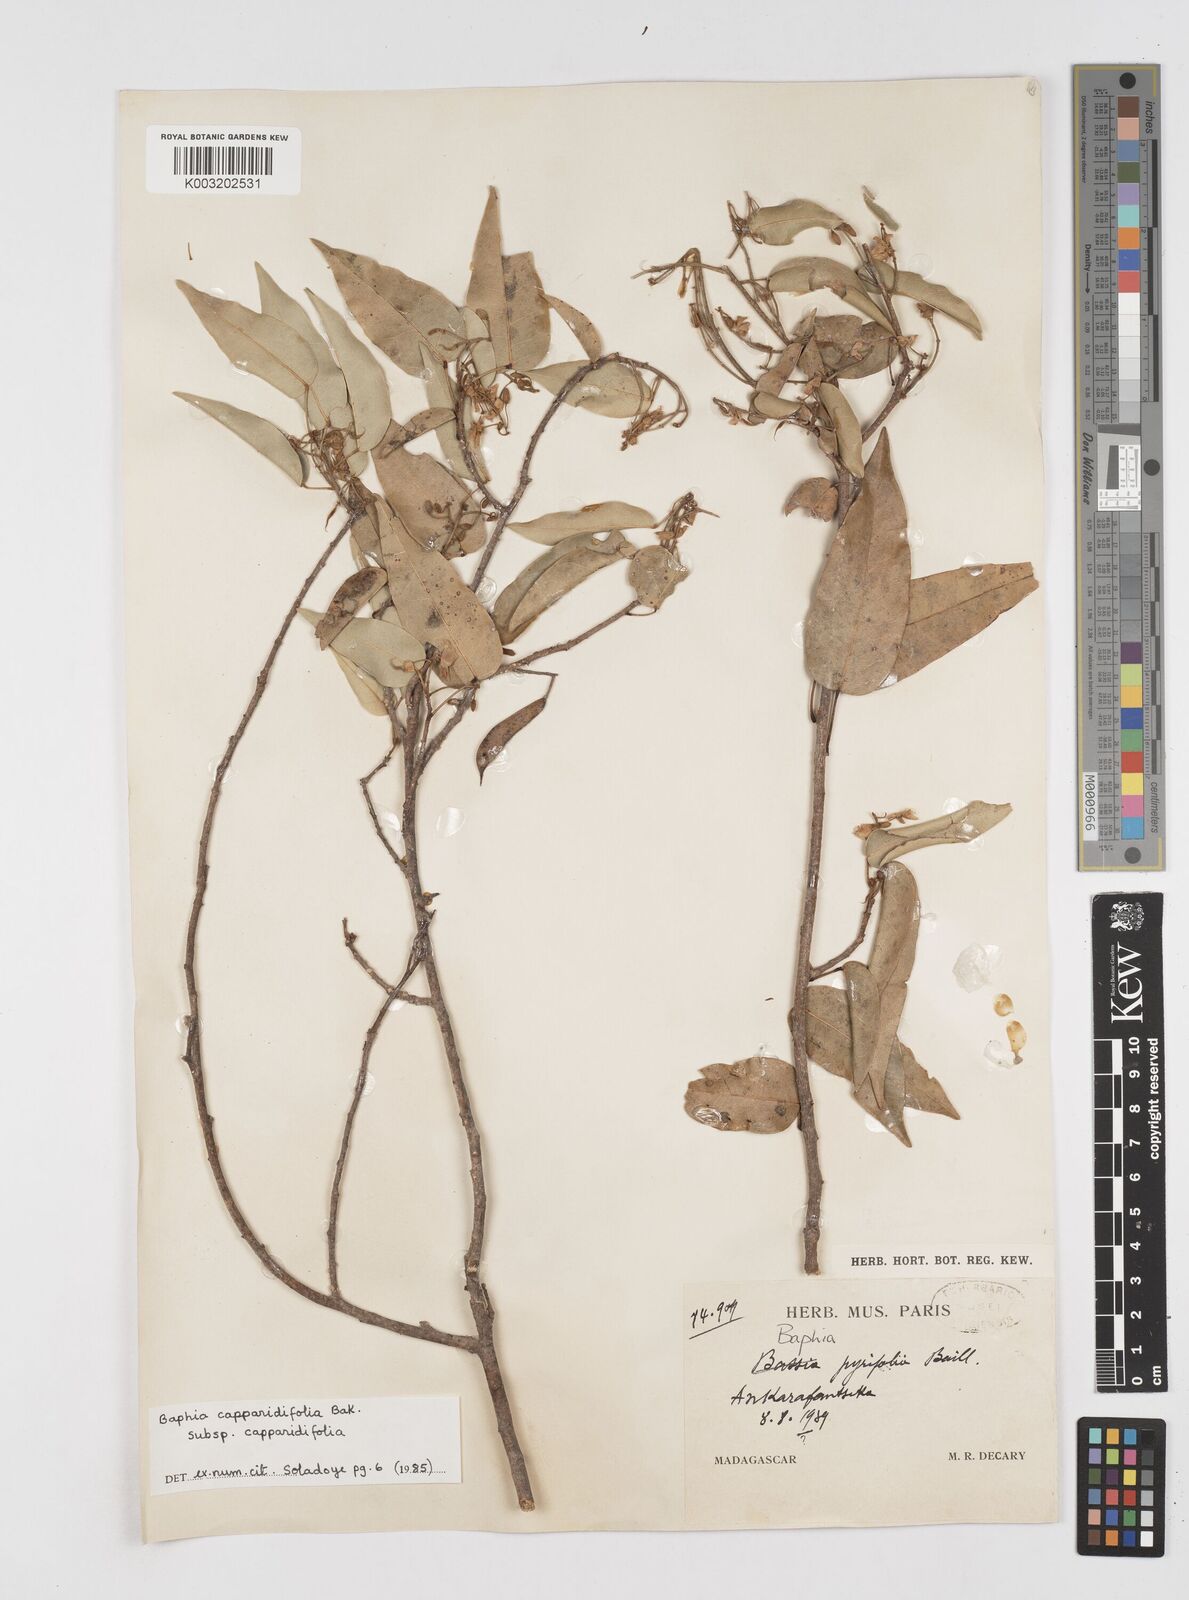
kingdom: Plantae
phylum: Tracheophyta
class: Magnoliopsida
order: Fabales
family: Fabaceae
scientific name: Fabaceae
